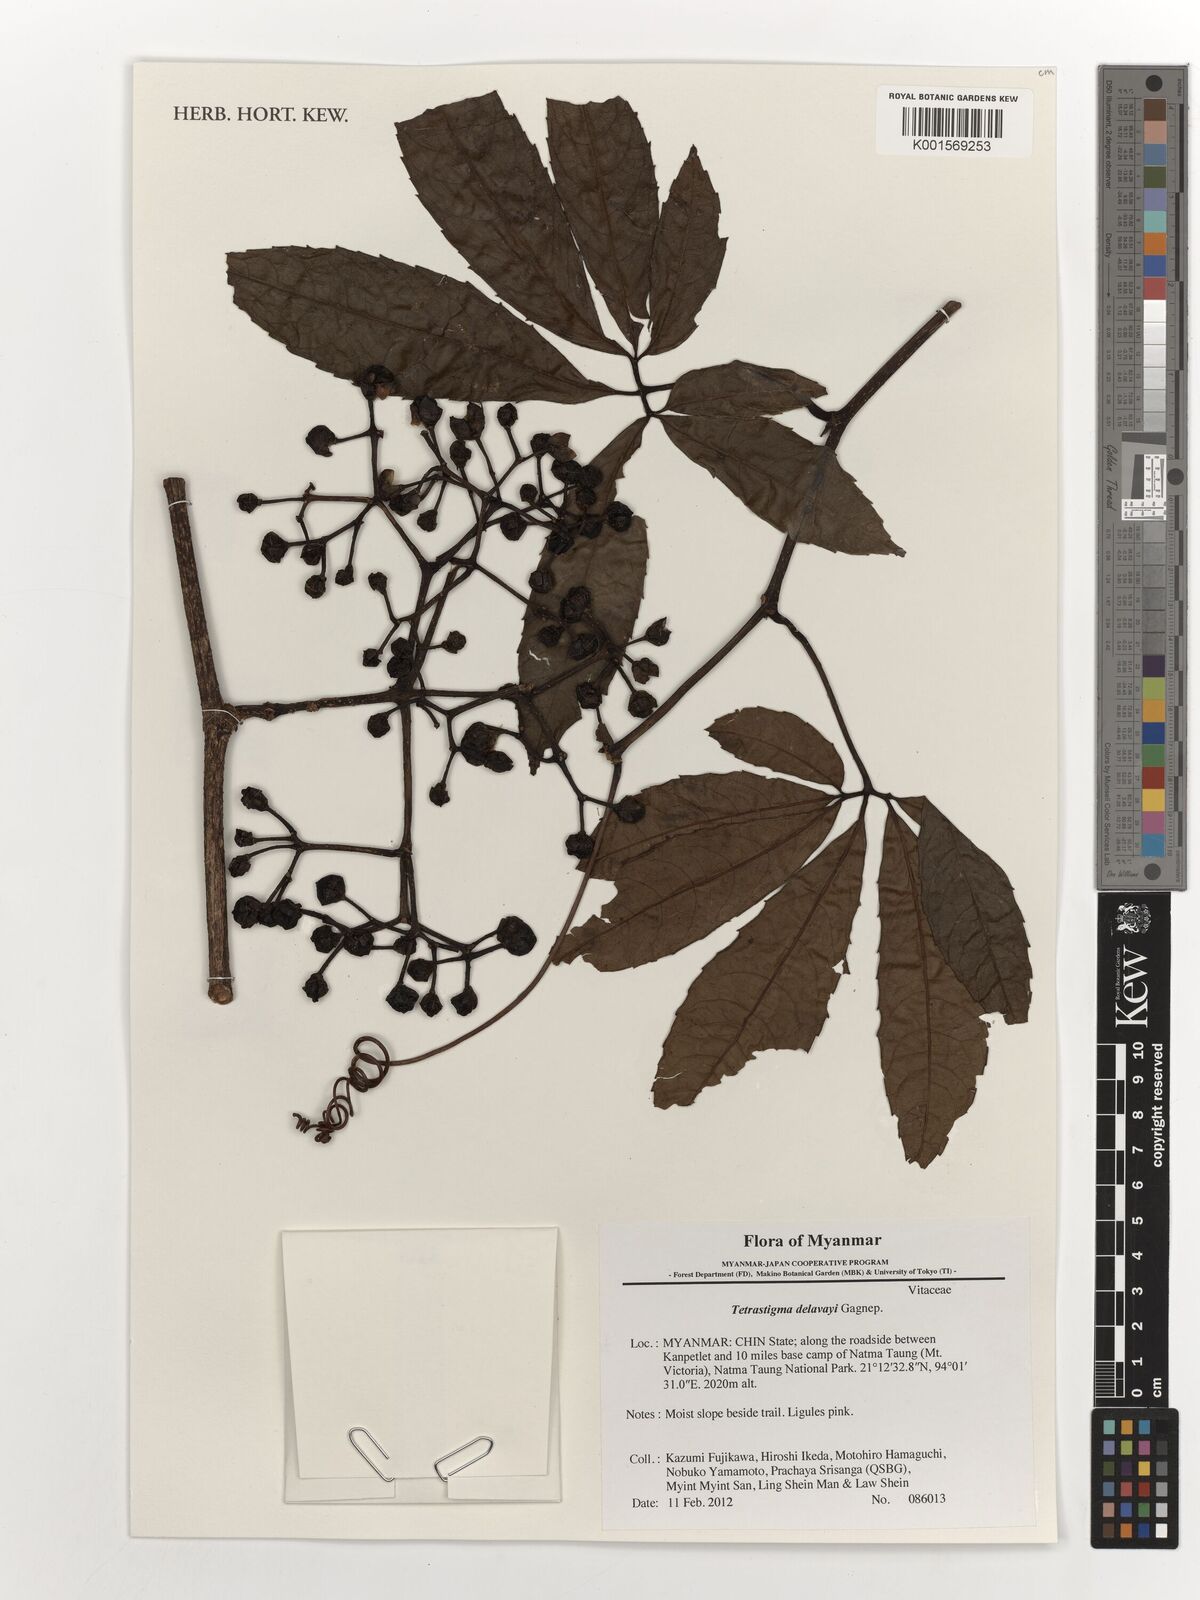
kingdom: Plantae
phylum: Tracheophyta
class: Magnoliopsida
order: Vitales
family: Vitaceae
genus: Tetrastigma
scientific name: Tetrastigma delavayi
